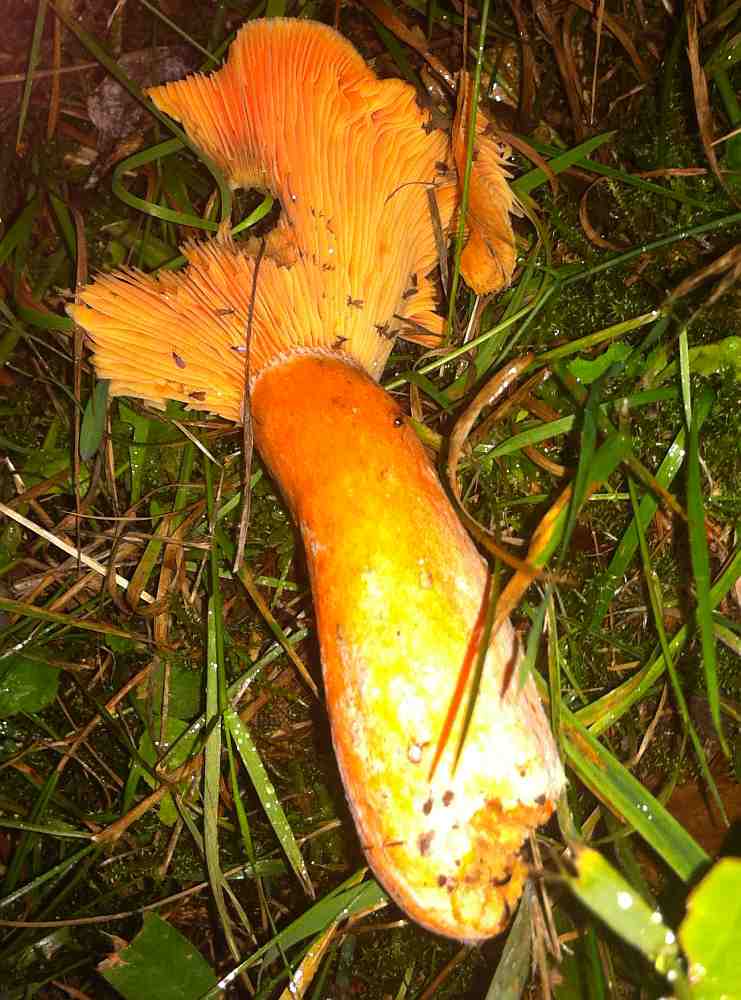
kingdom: Fungi
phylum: Basidiomycota
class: Agaricomycetes
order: Russulales
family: Russulaceae
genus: Lactarius
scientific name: Lactarius deterrimus
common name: gran-mælkehat
